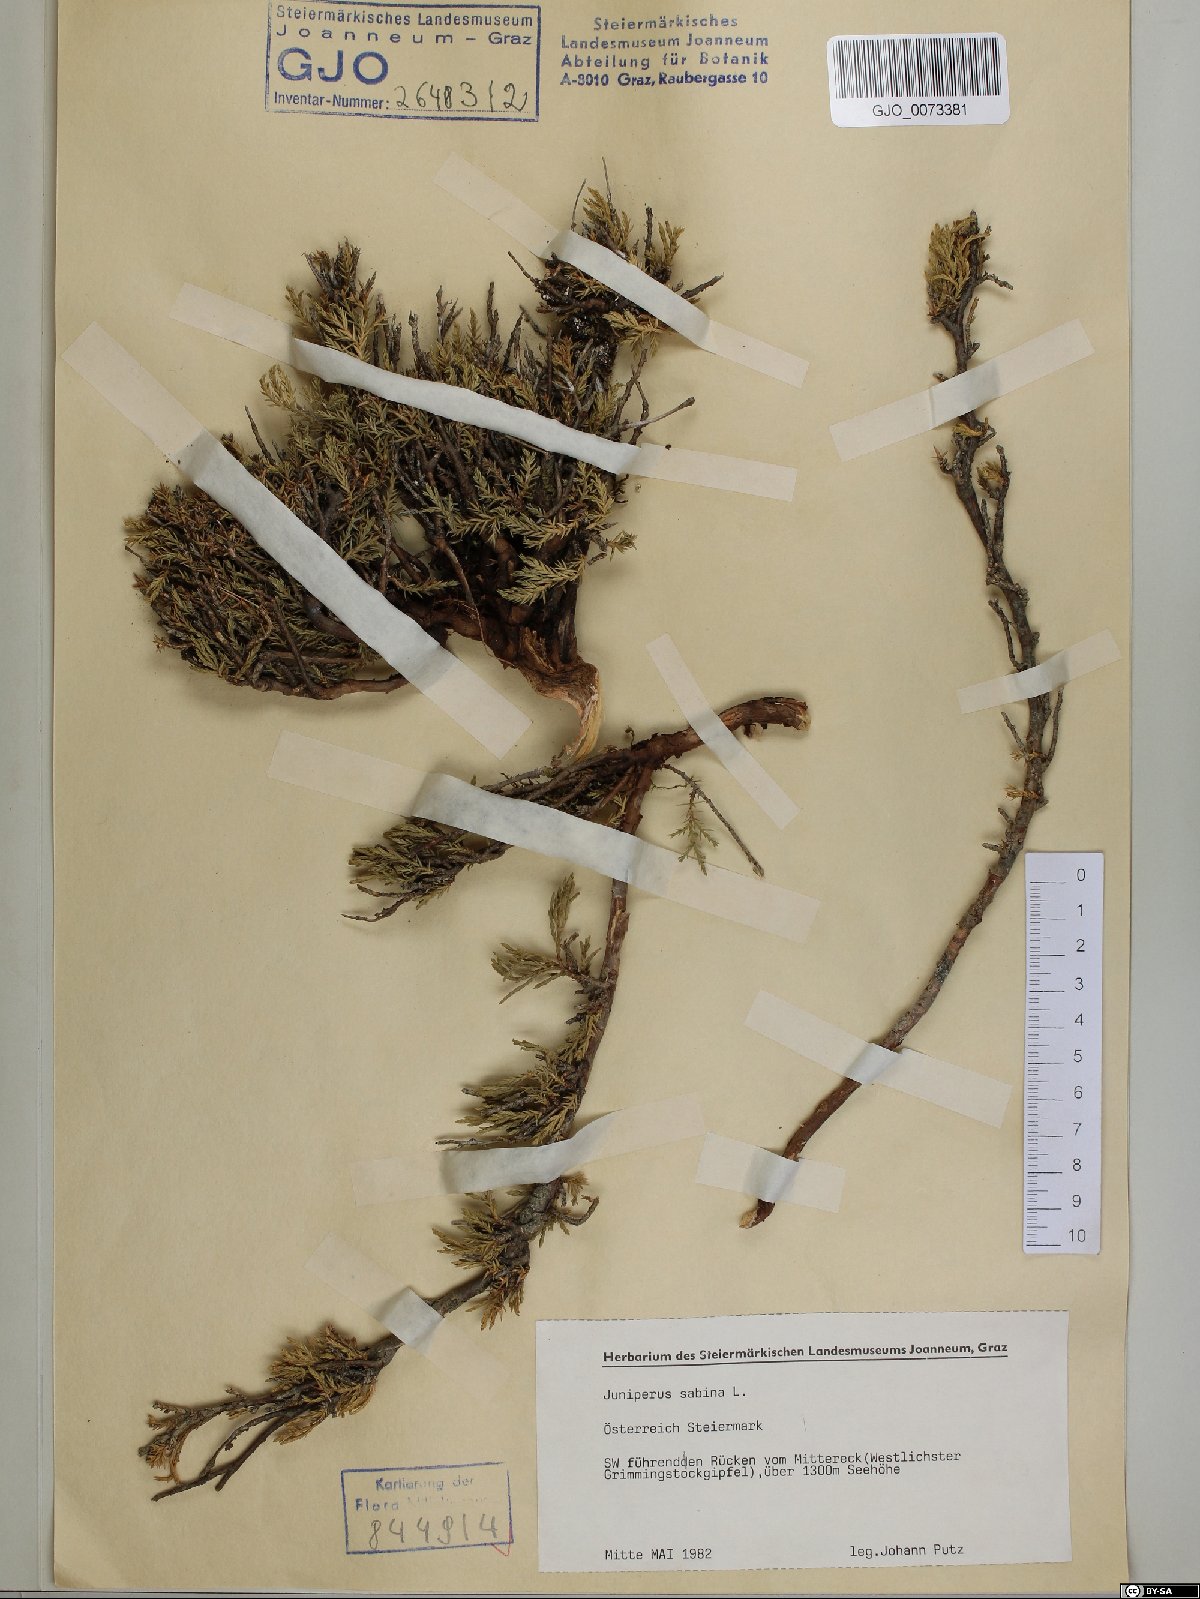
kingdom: Plantae
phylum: Tracheophyta
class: Pinopsida
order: Pinales
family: Cupressaceae
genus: Juniperus
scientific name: Juniperus sabina
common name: Savin
